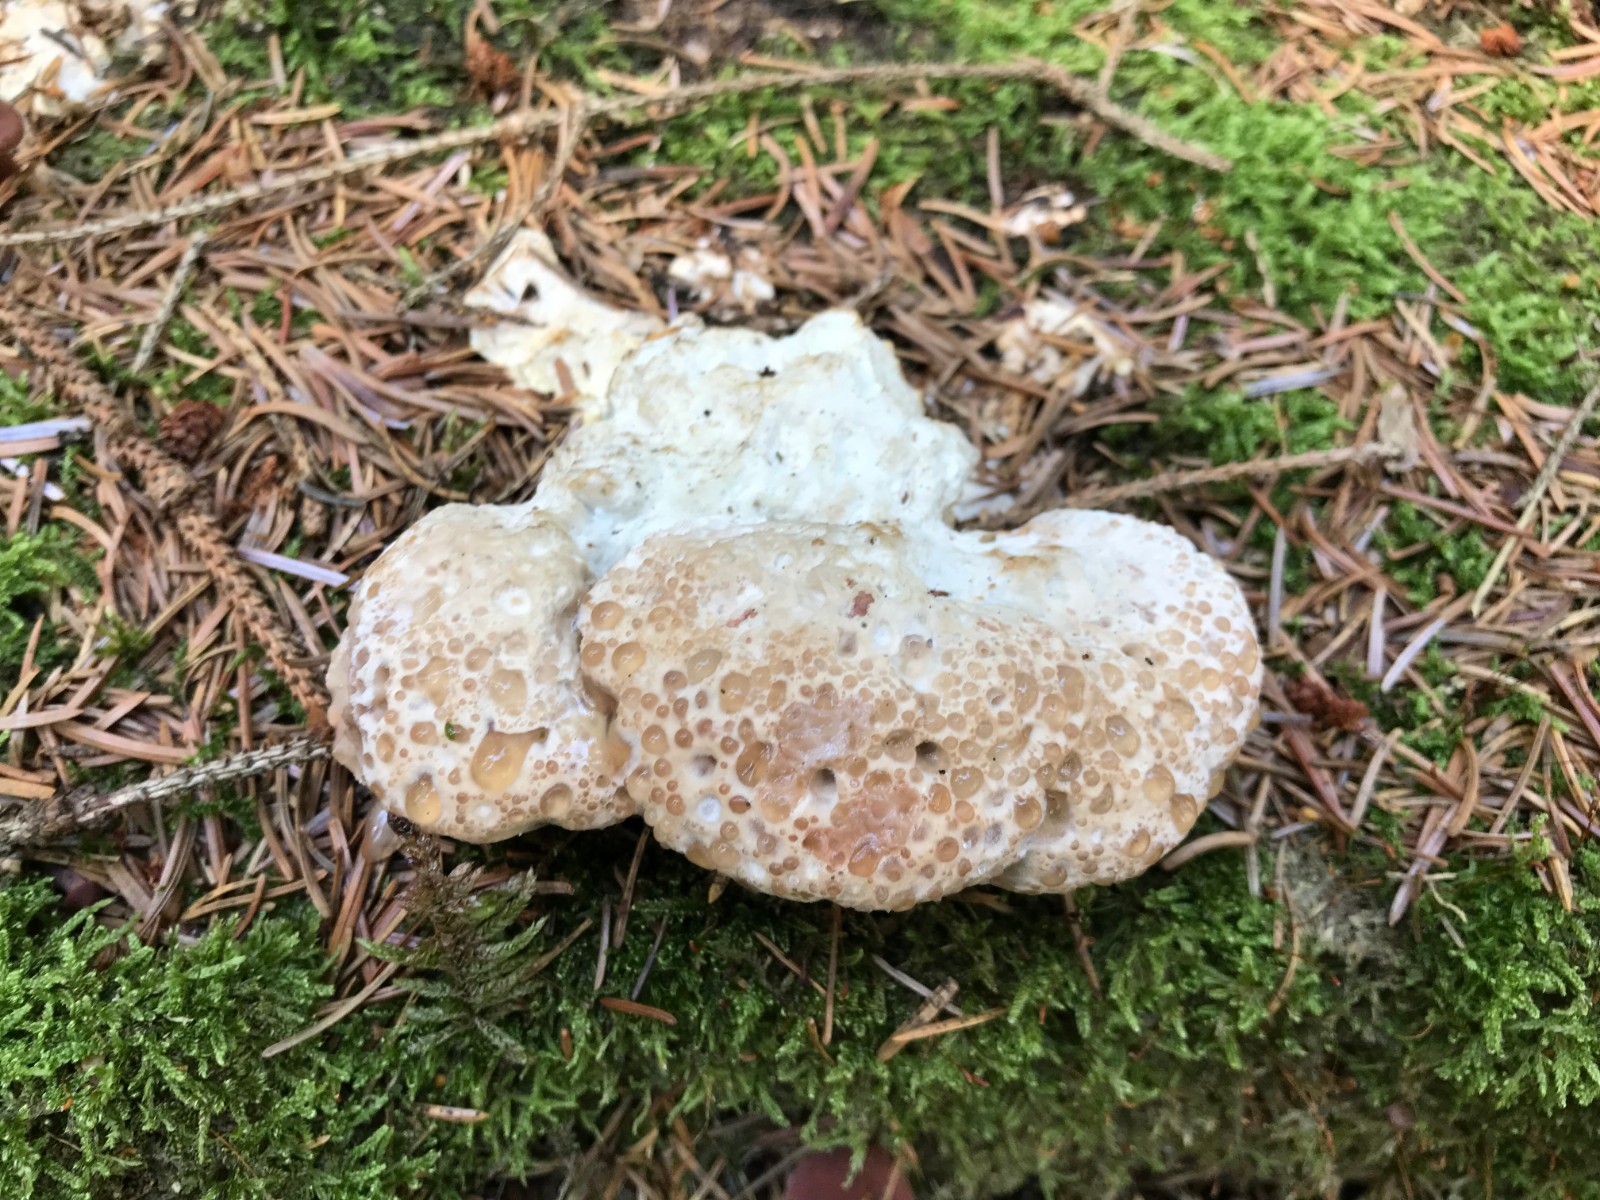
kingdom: Fungi
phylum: Basidiomycota
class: Agaricomycetes
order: Polyporales
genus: Calcipostia
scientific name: Calcipostia guttulata
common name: dråbe-kødporesvamp
